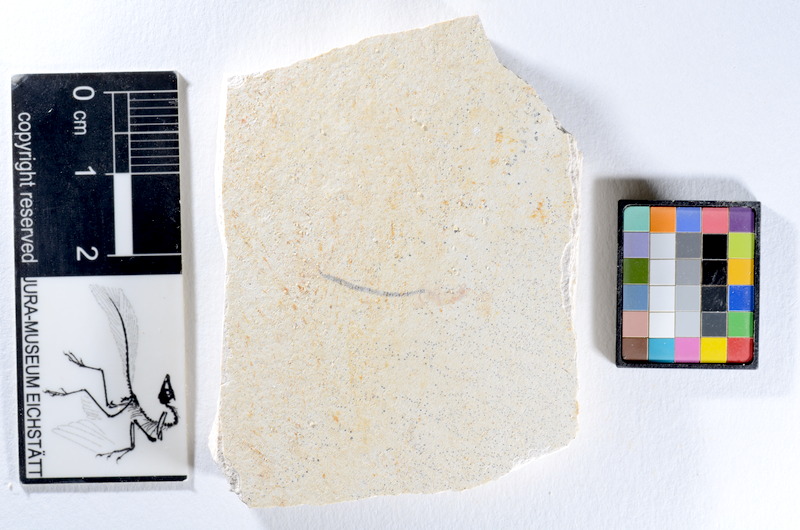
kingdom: Animalia
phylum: Chordata
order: Salmoniformes
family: Orthogonikleithridae
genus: Orthogonikleithrus
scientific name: Orthogonikleithrus hoelli
